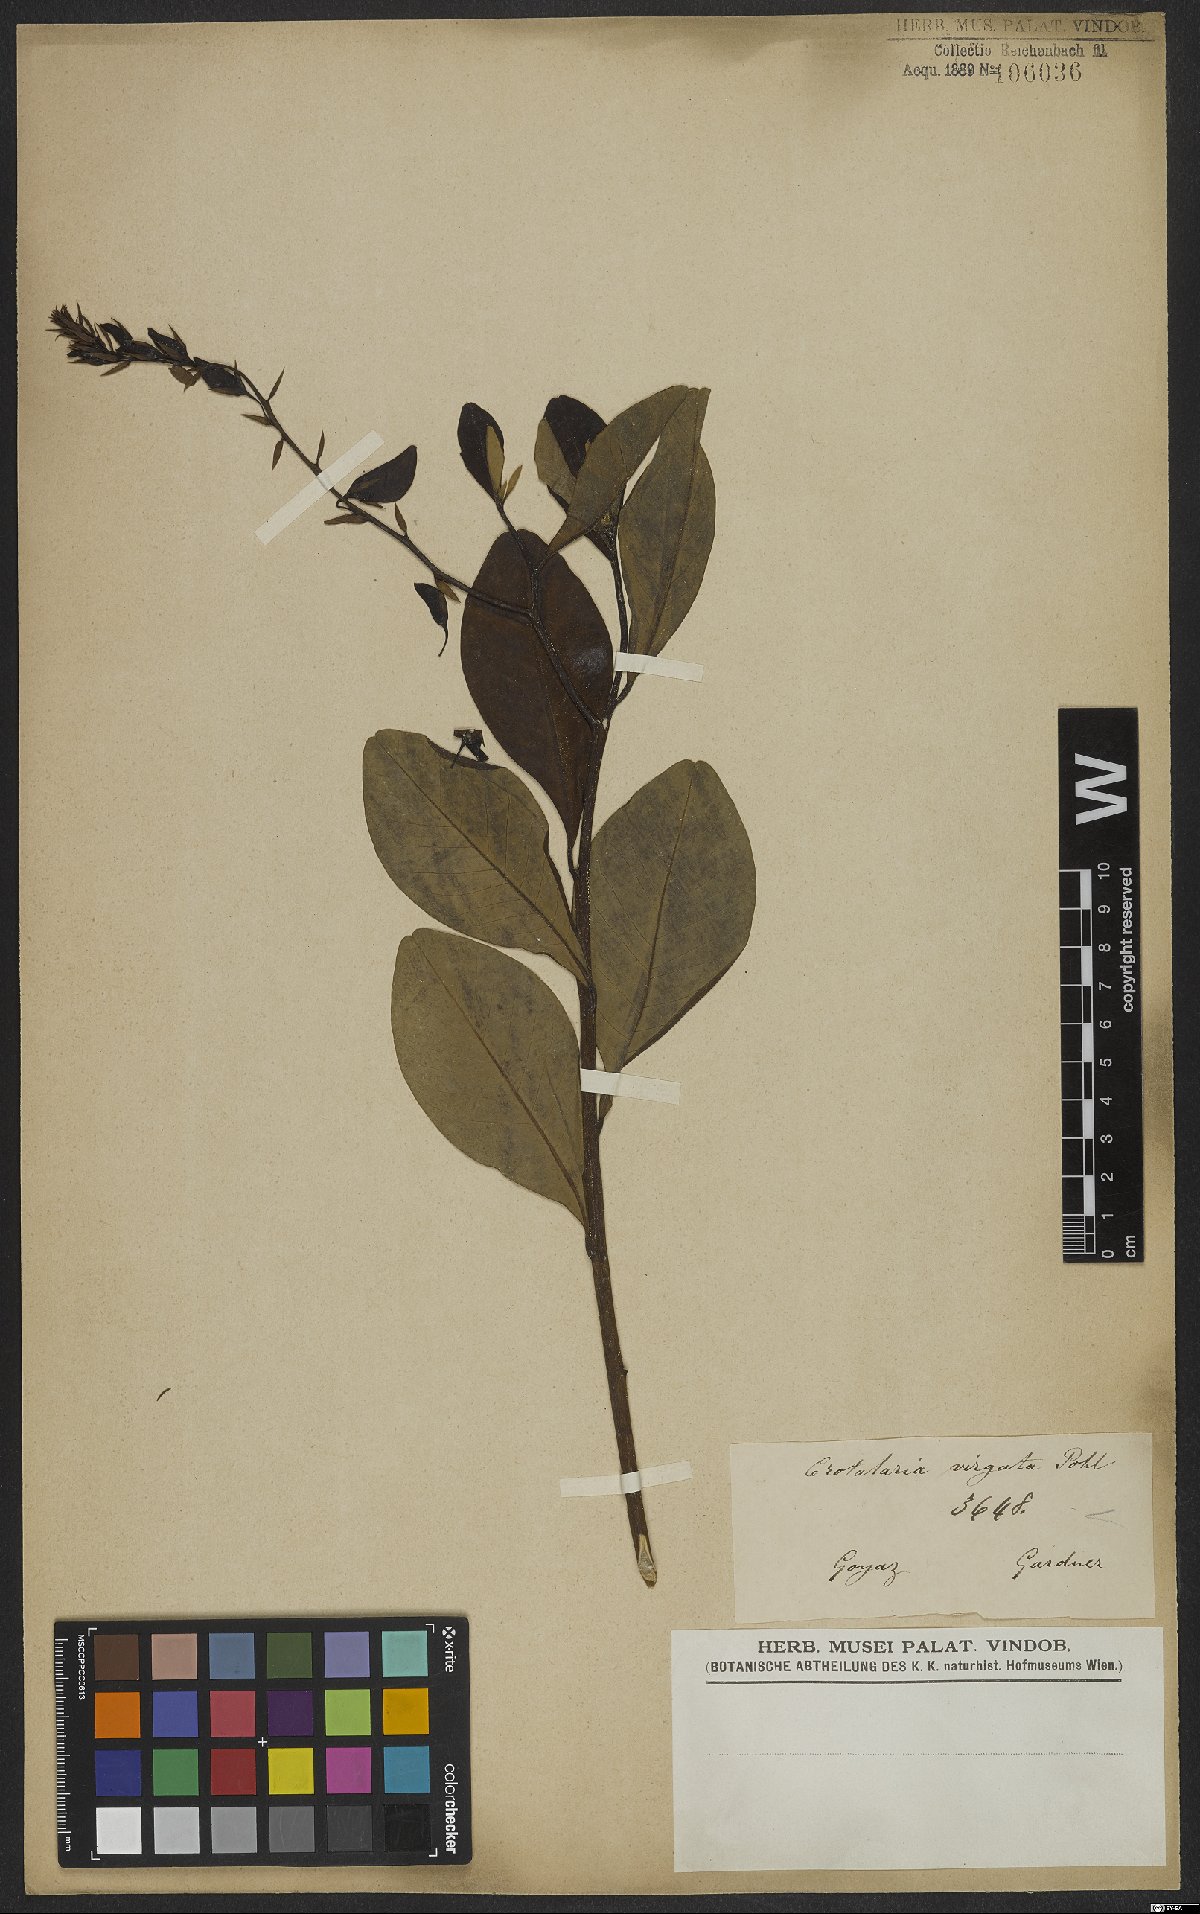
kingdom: Plantae
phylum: Tracheophyta
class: Magnoliopsida
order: Fabales
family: Fabaceae
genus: Crotalaria
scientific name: Crotalaria paulina
